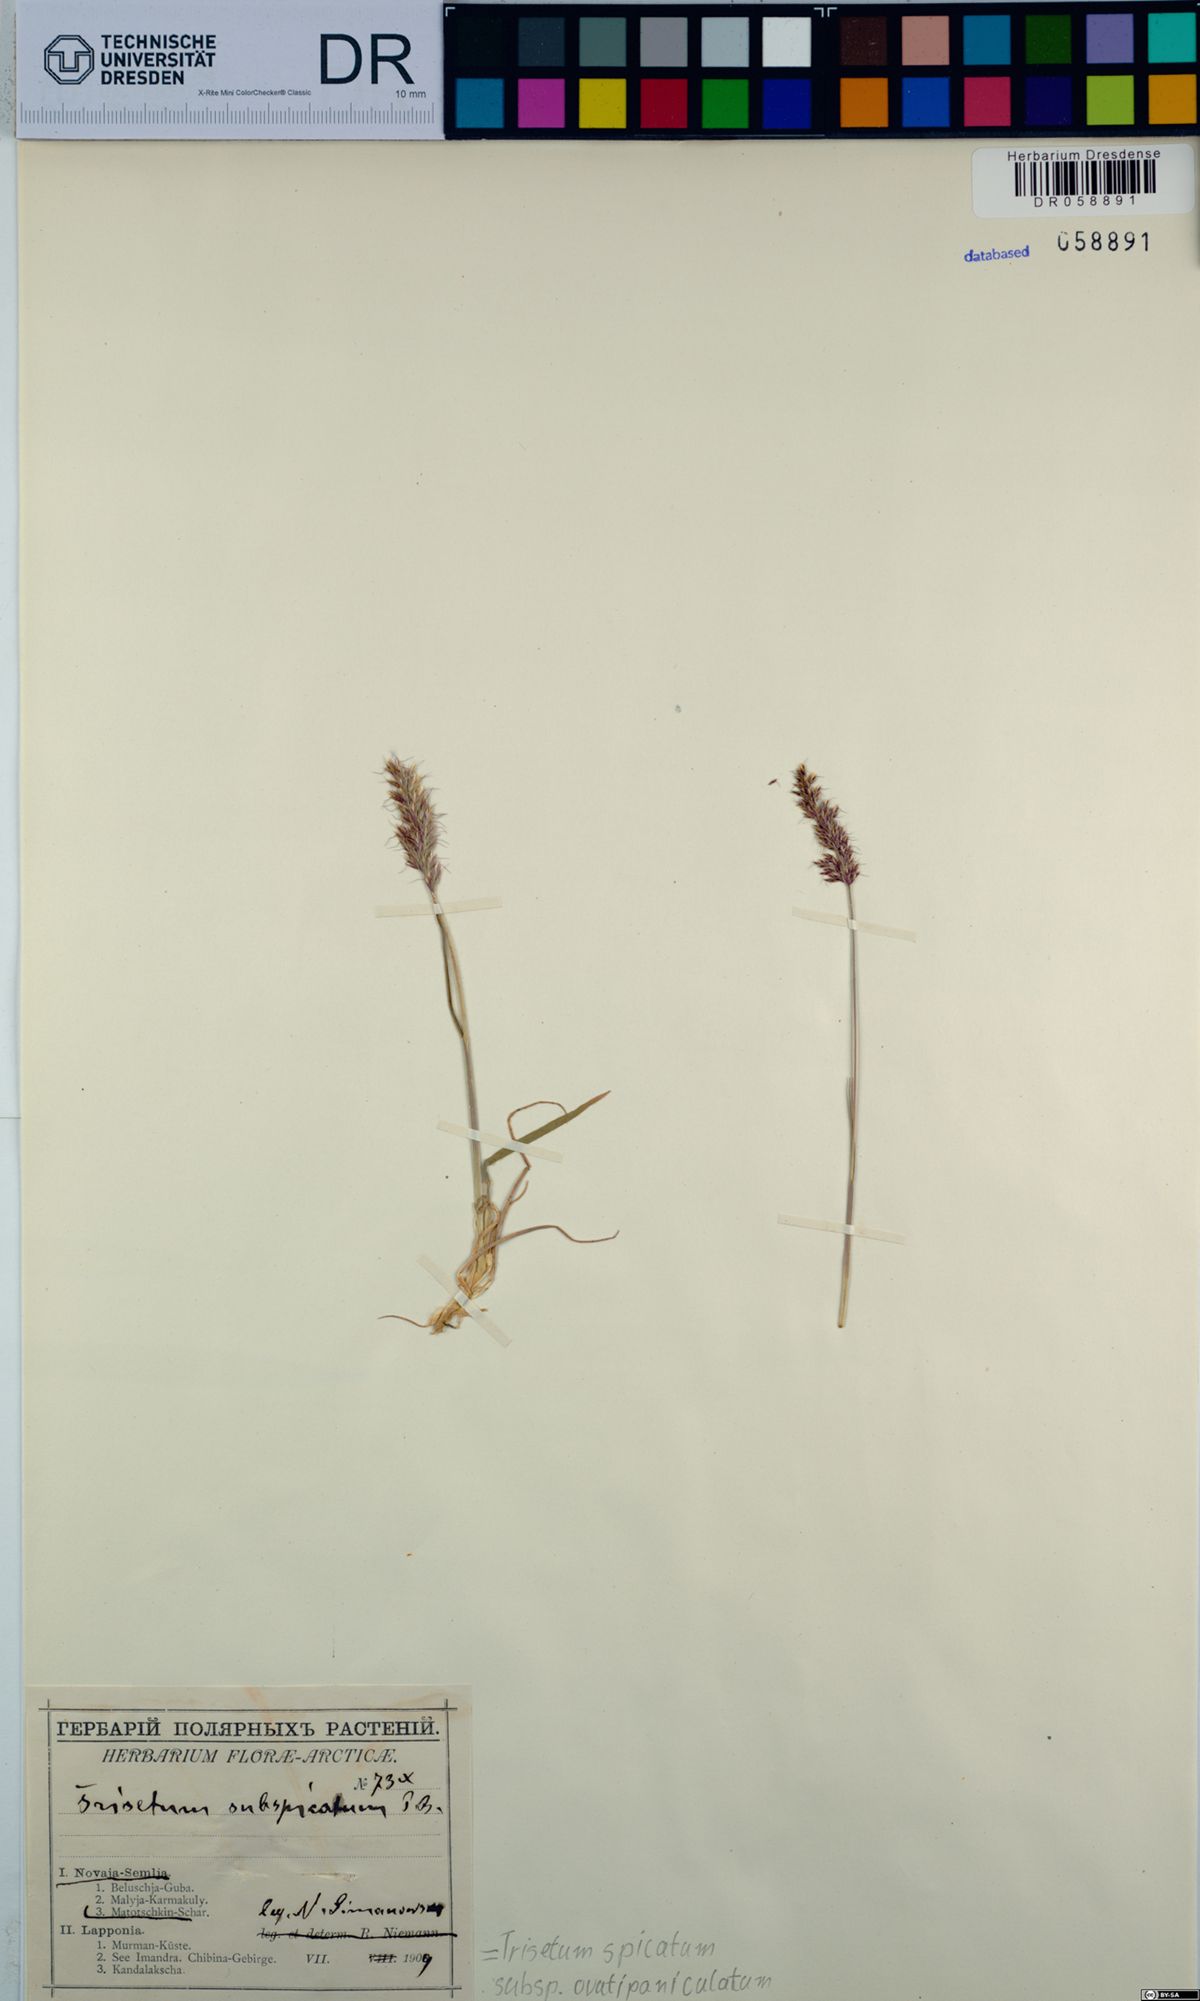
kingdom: Plantae
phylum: Tracheophyta
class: Liliopsida
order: Poales
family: Poaceae
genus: Koeleria
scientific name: Koeleria spicata
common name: Mountain trisetum
